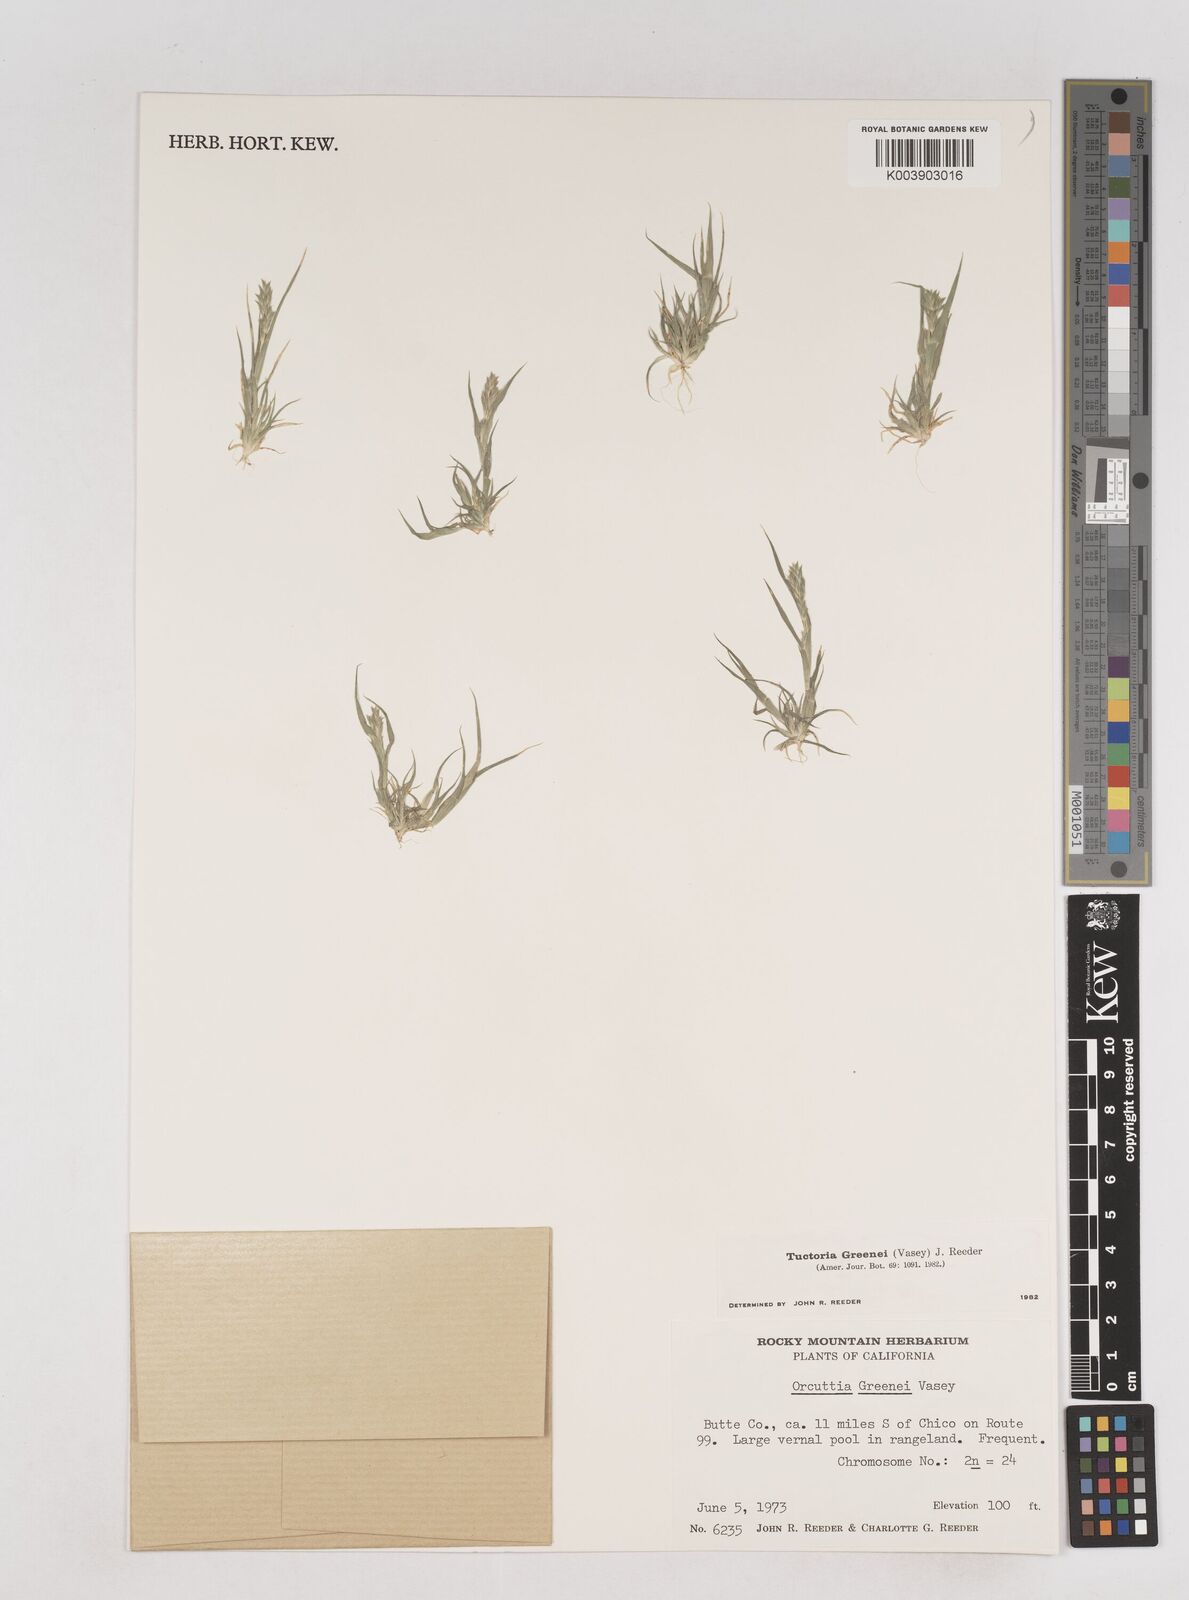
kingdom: Plantae
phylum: Tracheophyta
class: Liliopsida
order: Poales
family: Poaceae
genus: Tuctoria
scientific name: Tuctoria greenei
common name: Awnless spiral grass
